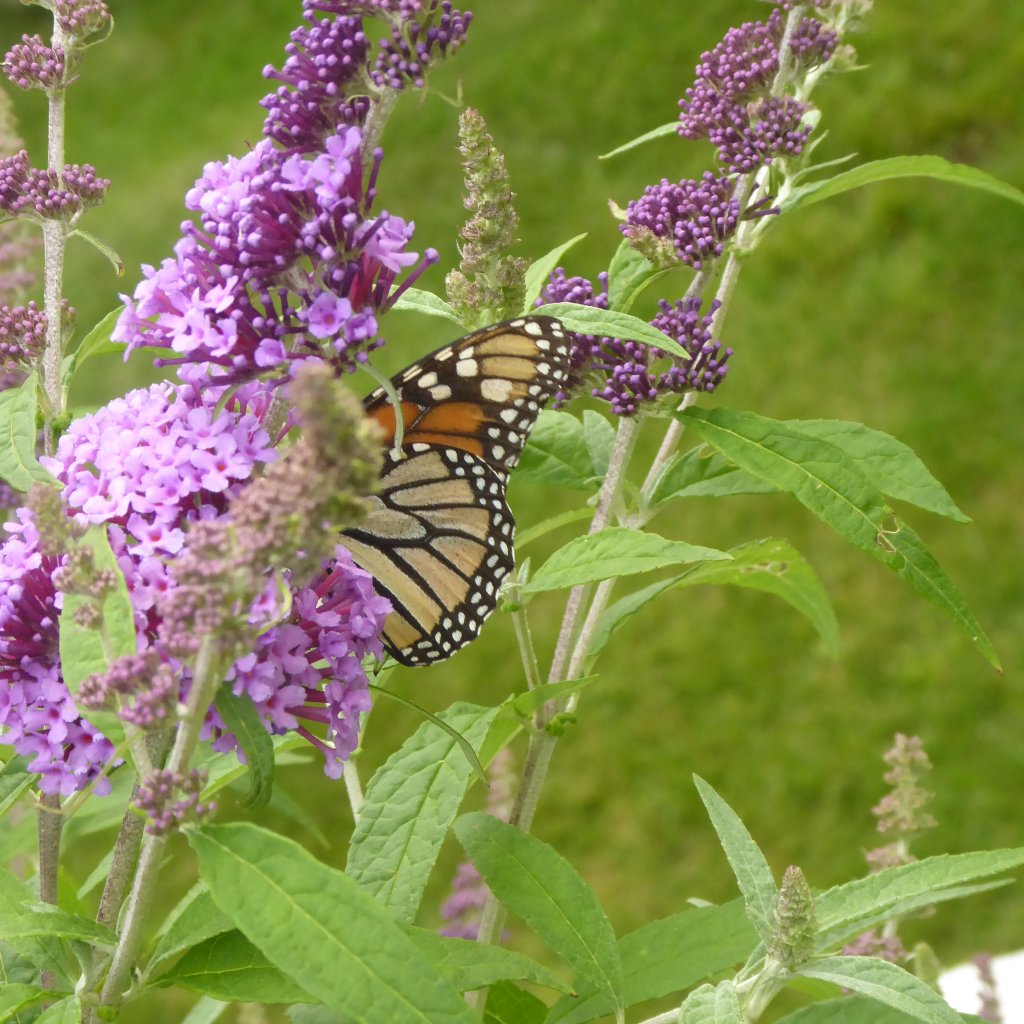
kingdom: Animalia
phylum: Arthropoda
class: Insecta
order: Lepidoptera
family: Nymphalidae
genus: Danaus
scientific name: Danaus plexippus
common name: Monarch
